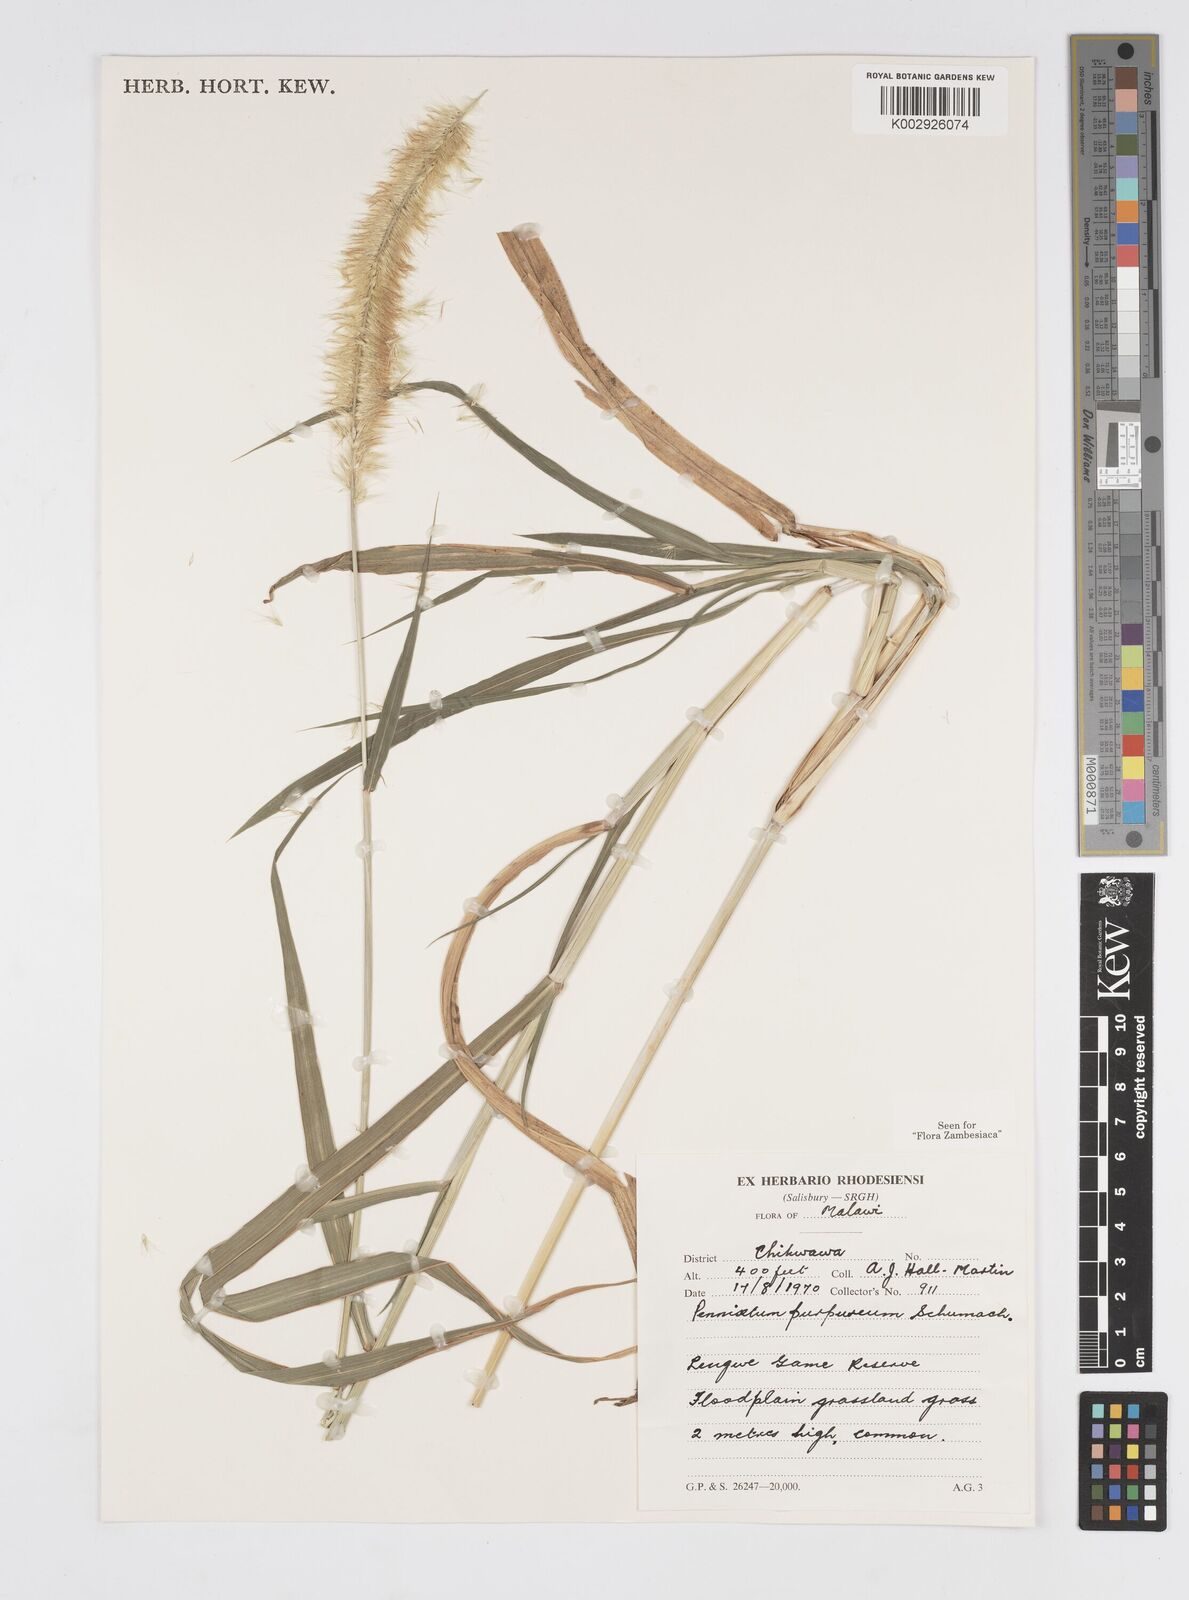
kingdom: Plantae
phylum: Tracheophyta
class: Liliopsida
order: Poales
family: Poaceae
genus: Cenchrus
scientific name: Cenchrus purpureus
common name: Elephant grass
